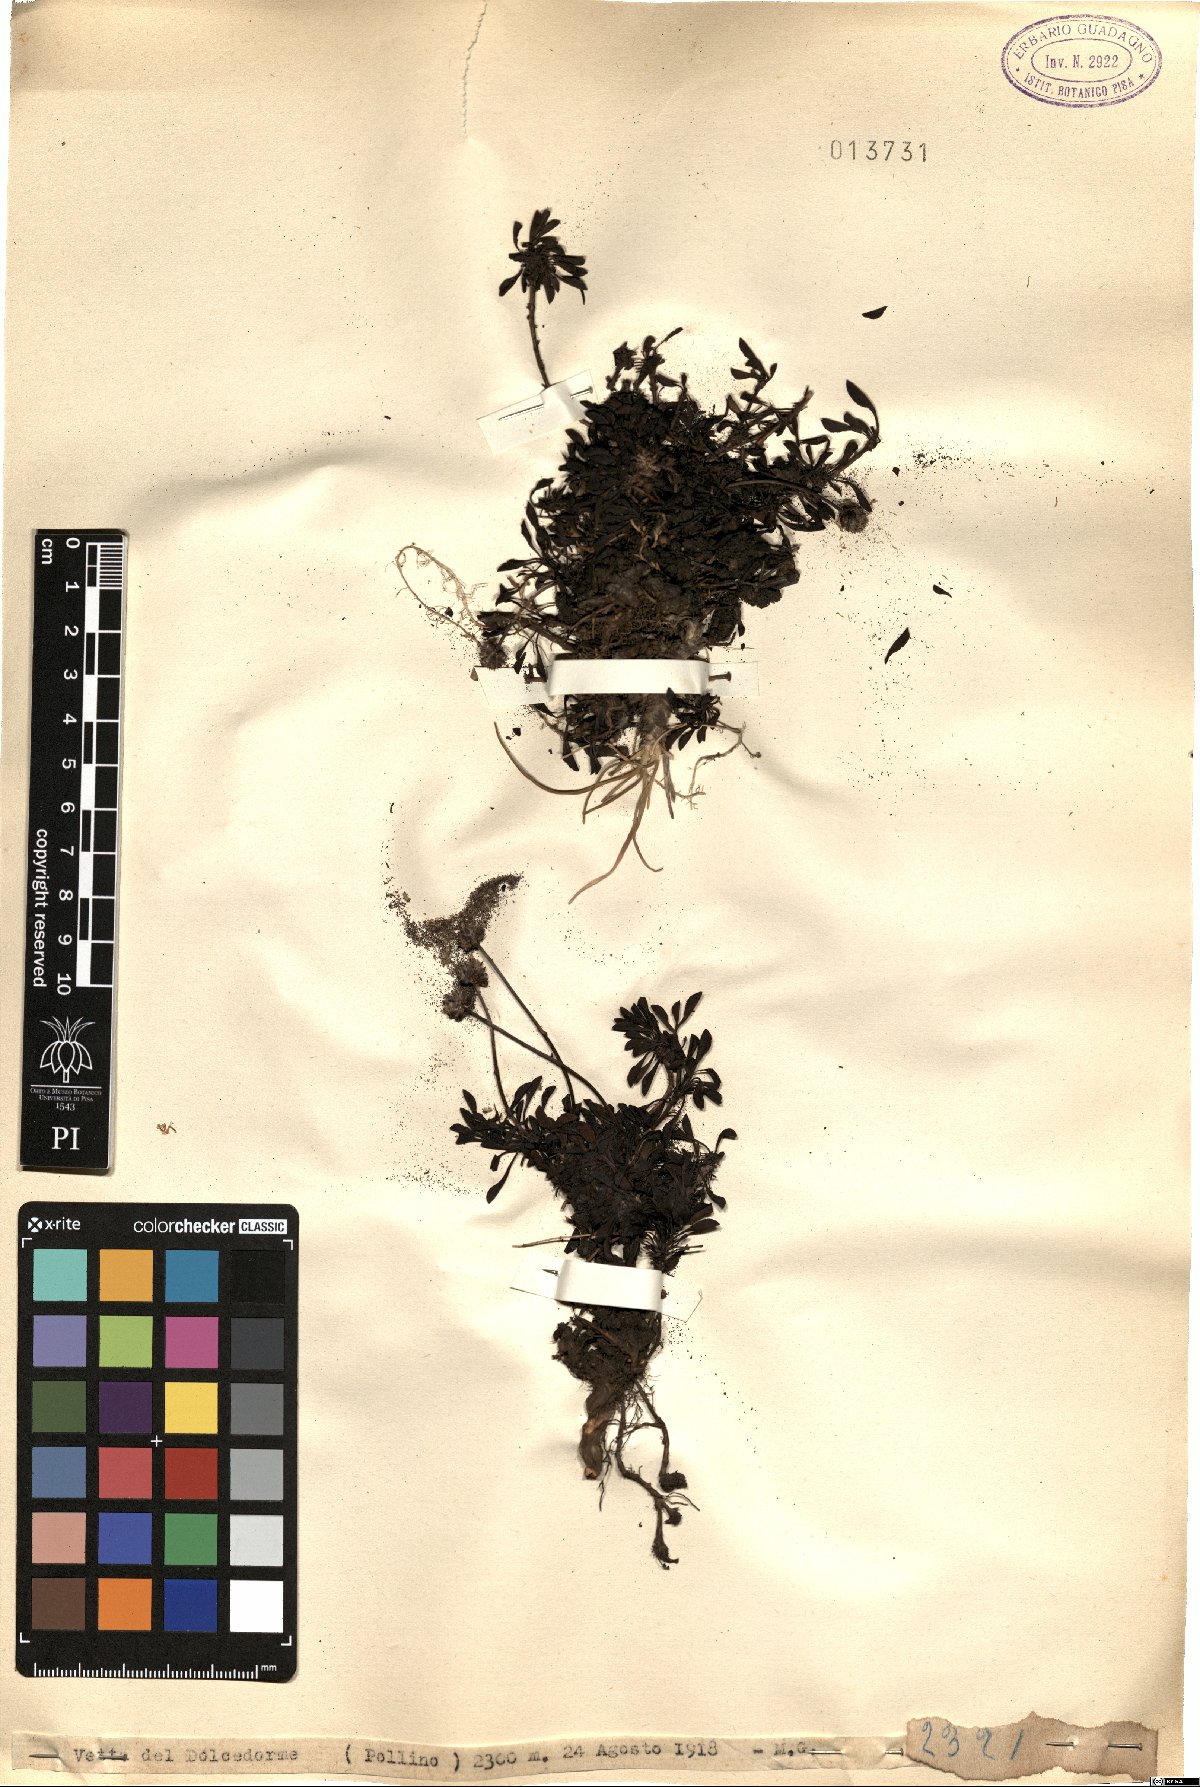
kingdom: Plantae
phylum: Tracheophyta
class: Magnoliopsida
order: Lamiales
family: Plantaginaceae
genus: Globularia
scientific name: Globularia
